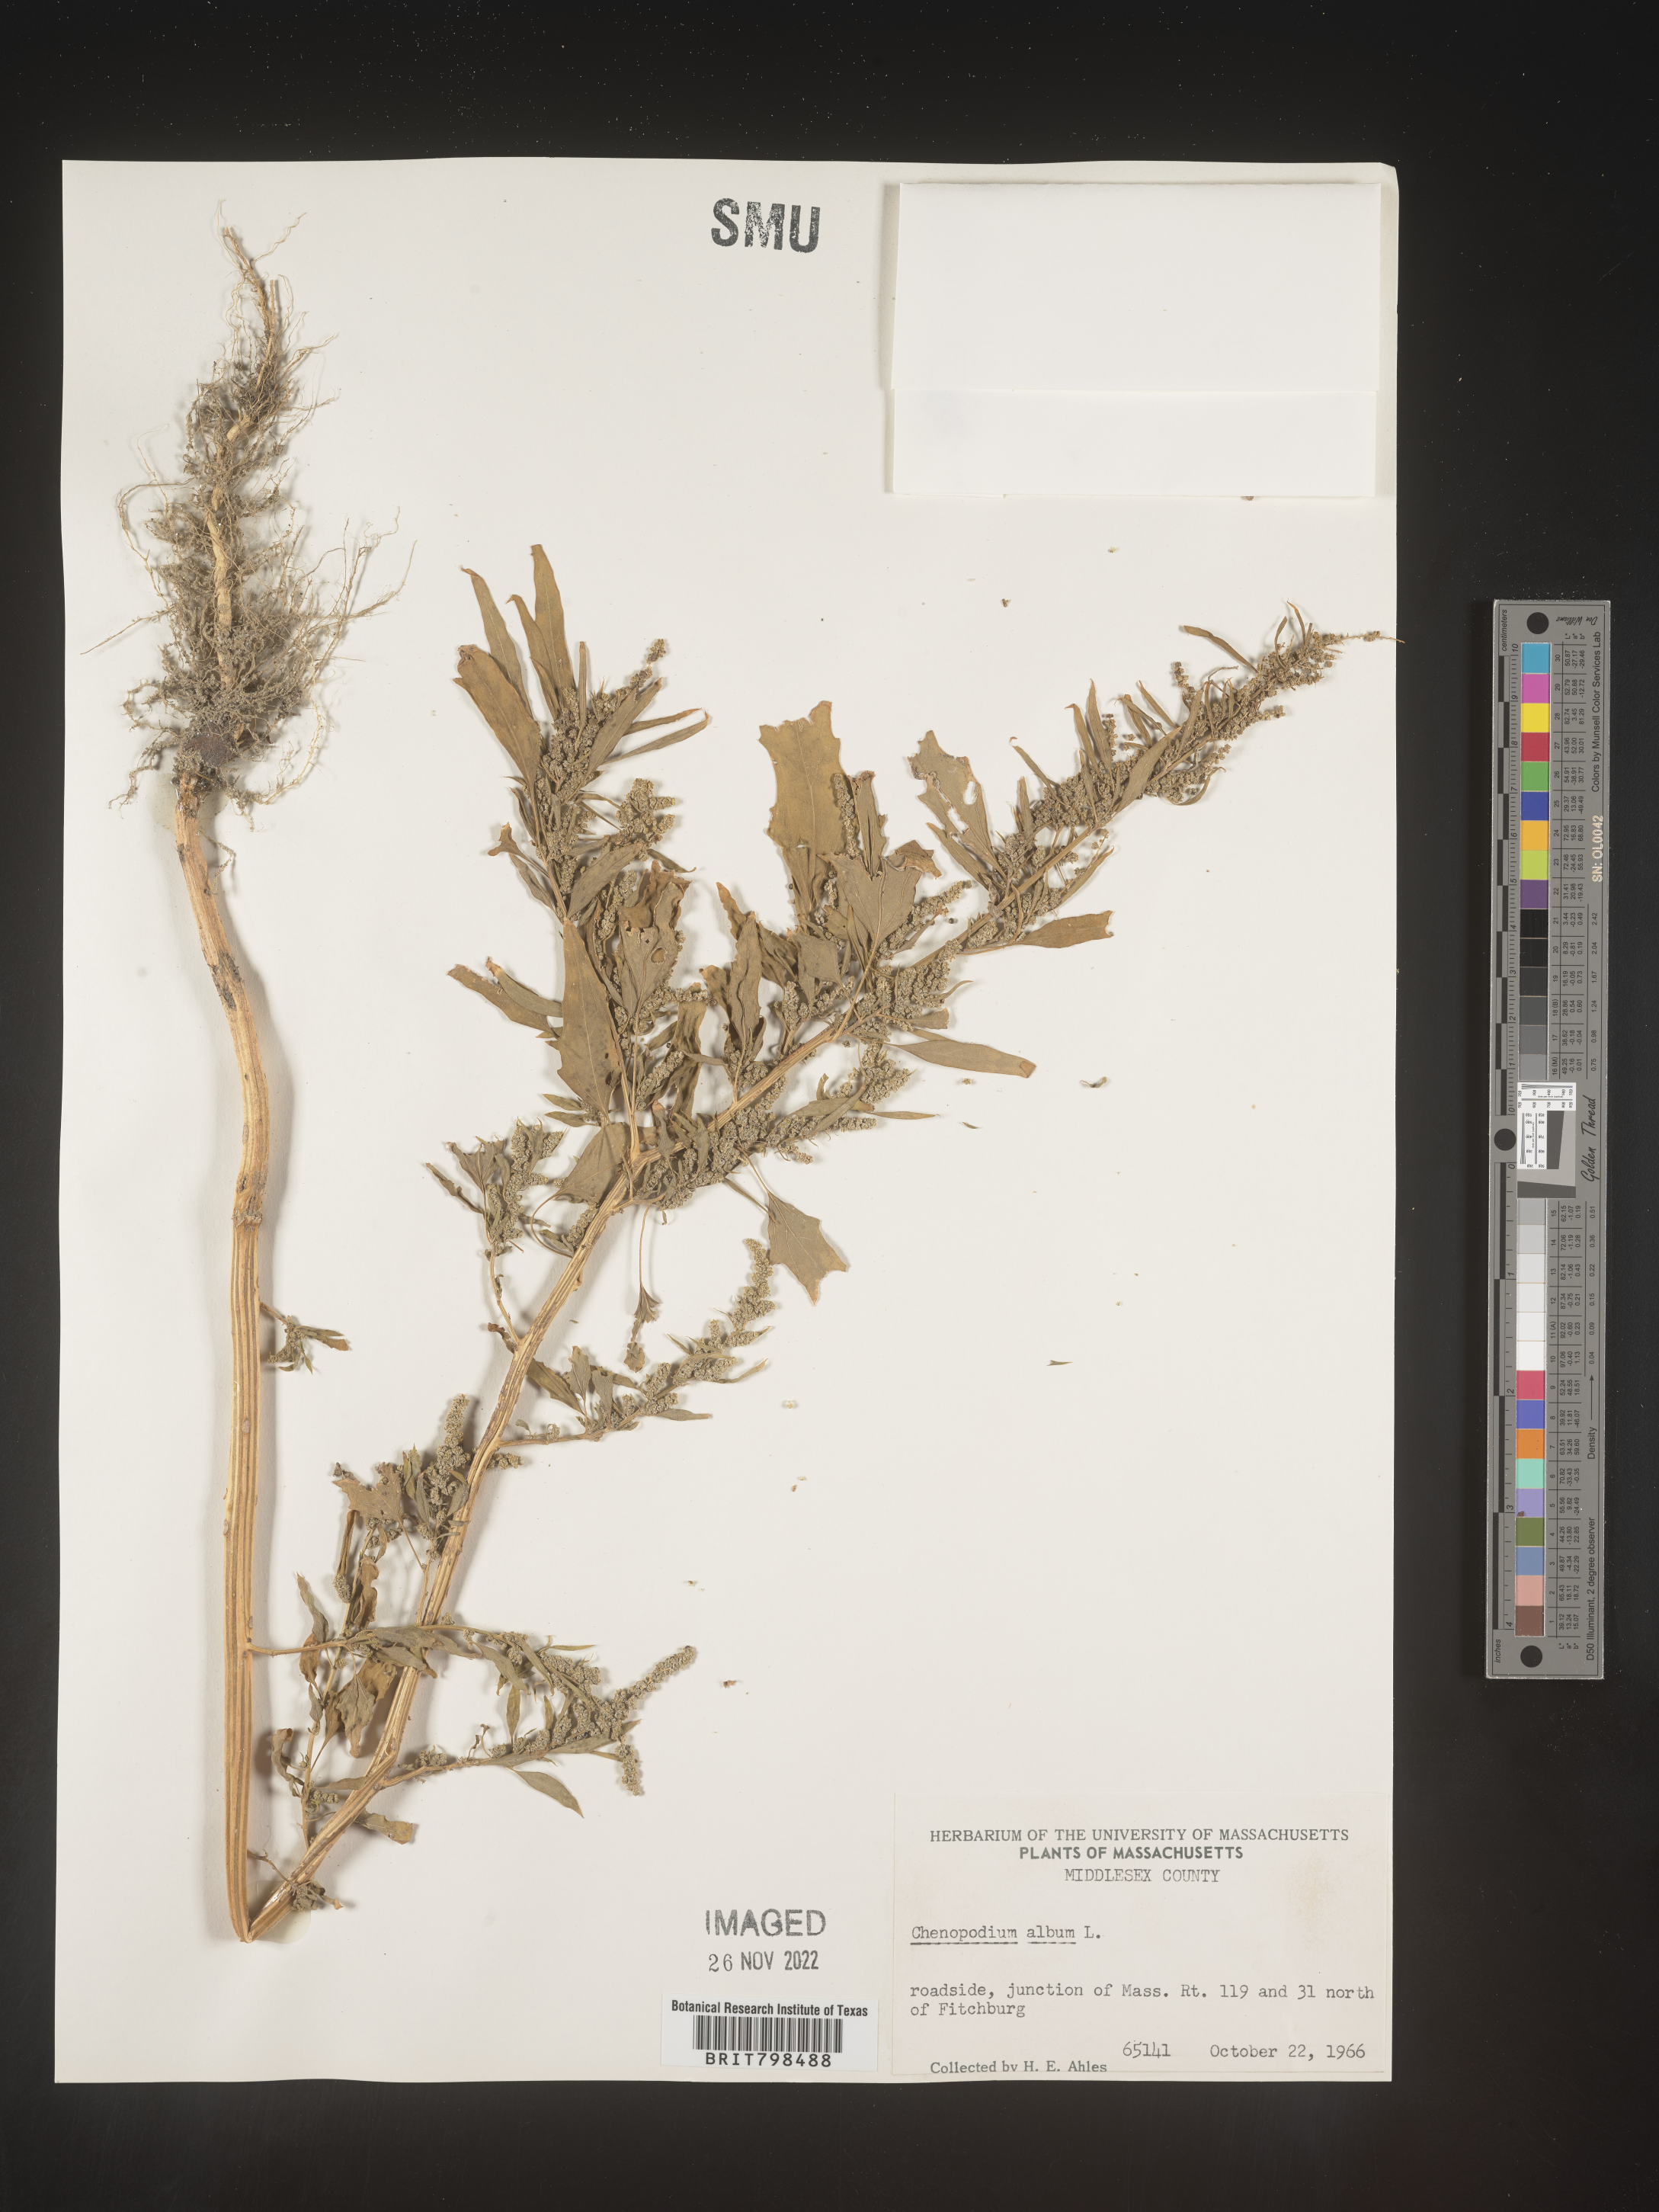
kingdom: Plantae
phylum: Tracheophyta
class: Magnoliopsida
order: Caryophyllales
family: Amaranthaceae
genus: Chenopodium
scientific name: Chenopodium album
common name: Fat-hen
